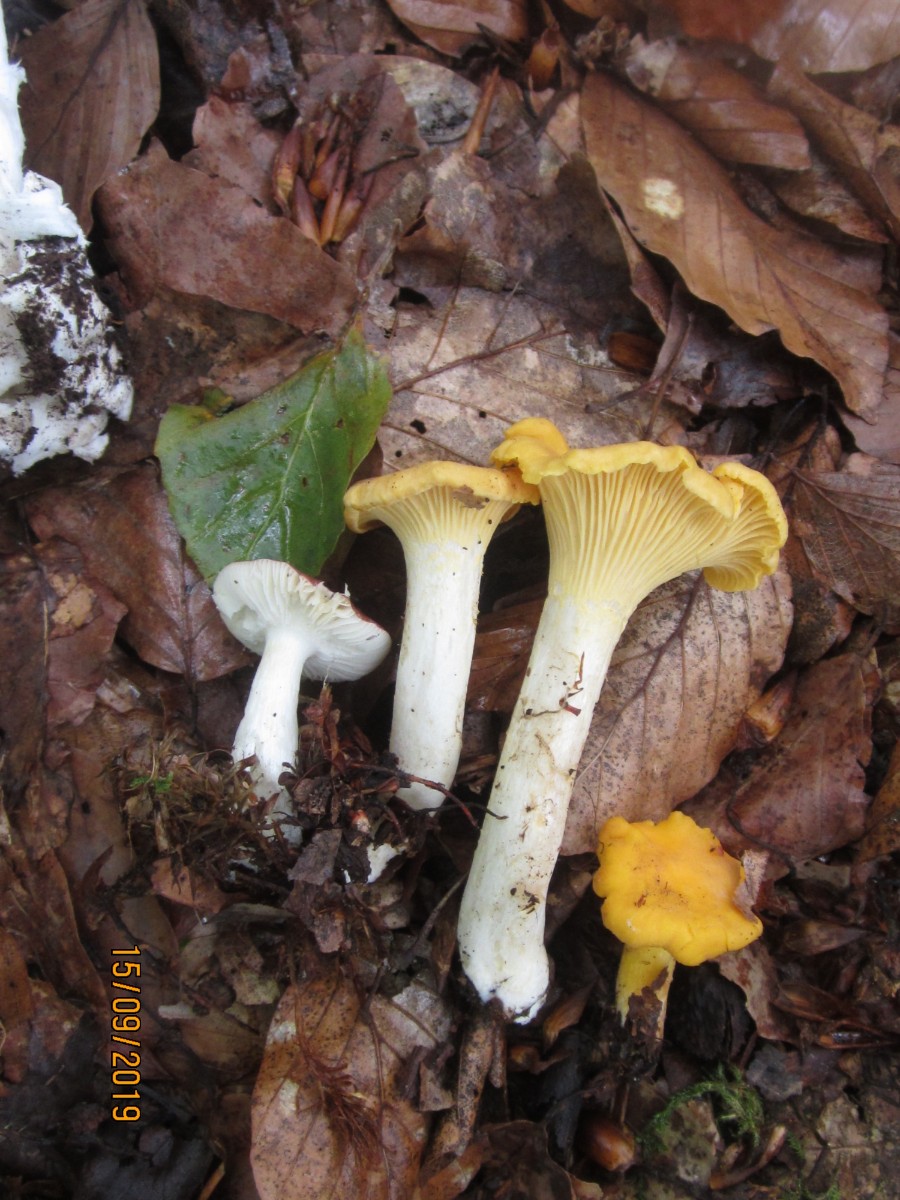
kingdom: Fungi
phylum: Basidiomycota
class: Agaricomycetes
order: Cantharellales
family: Hydnaceae
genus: Cantharellus
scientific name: Cantharellus cibarius
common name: almindelig kantarel
